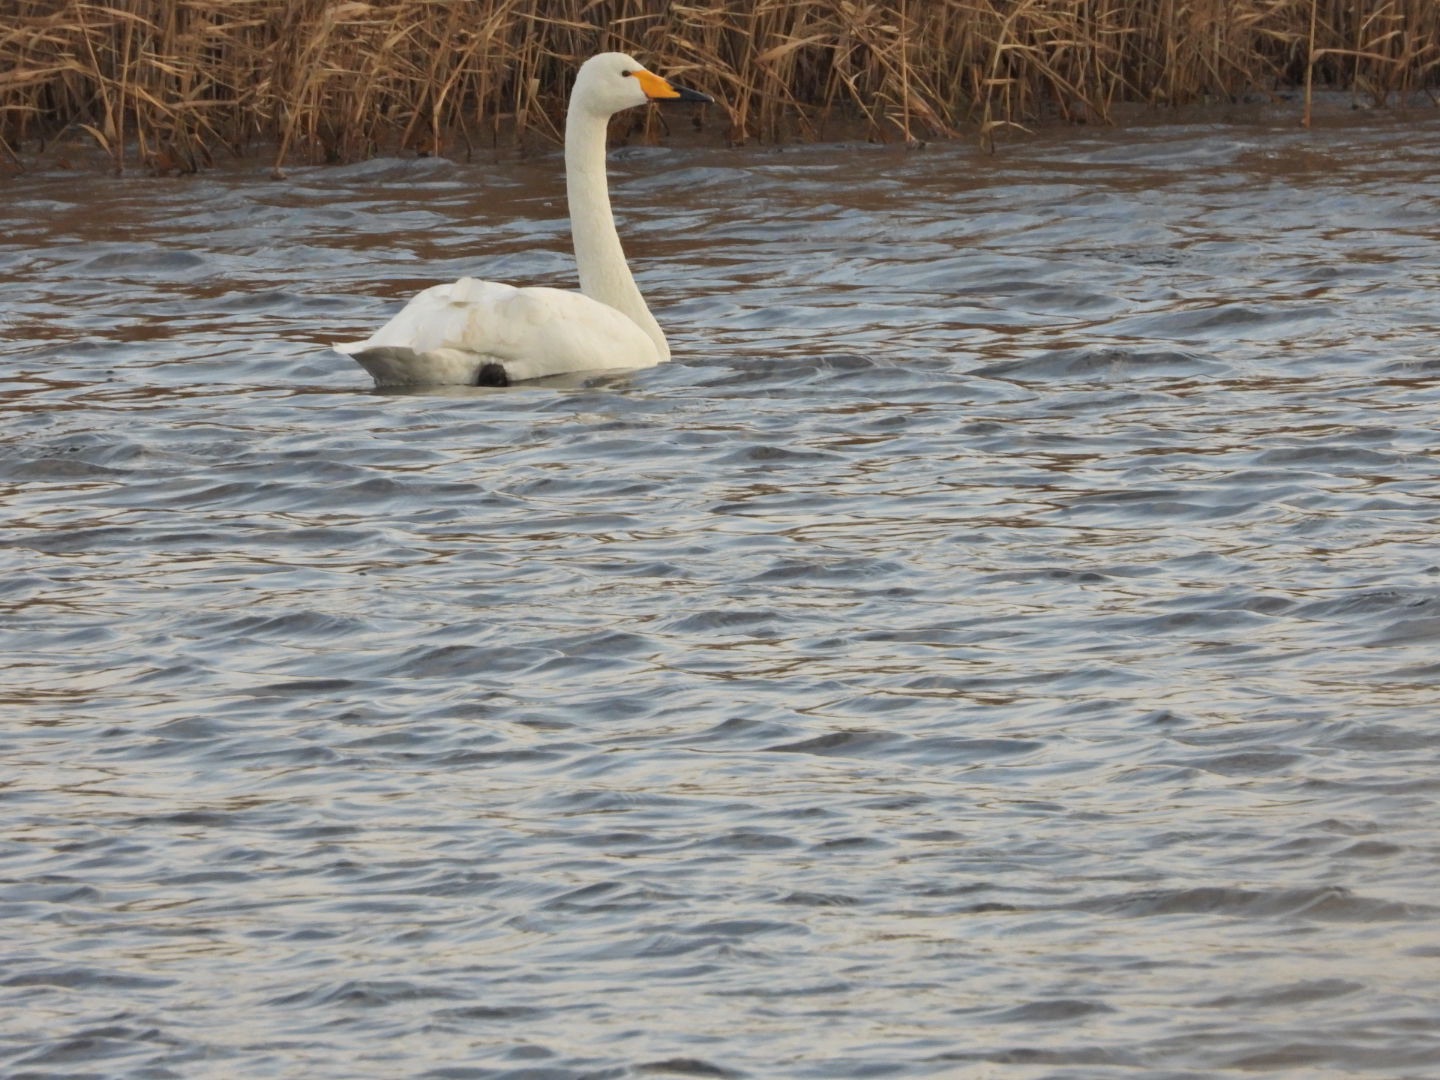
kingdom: Animalia
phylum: Chordata
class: Aves
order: Anseriformes
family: Anatidae
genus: Cygnus
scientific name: Cygnus cygnus
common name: Sangsvane
